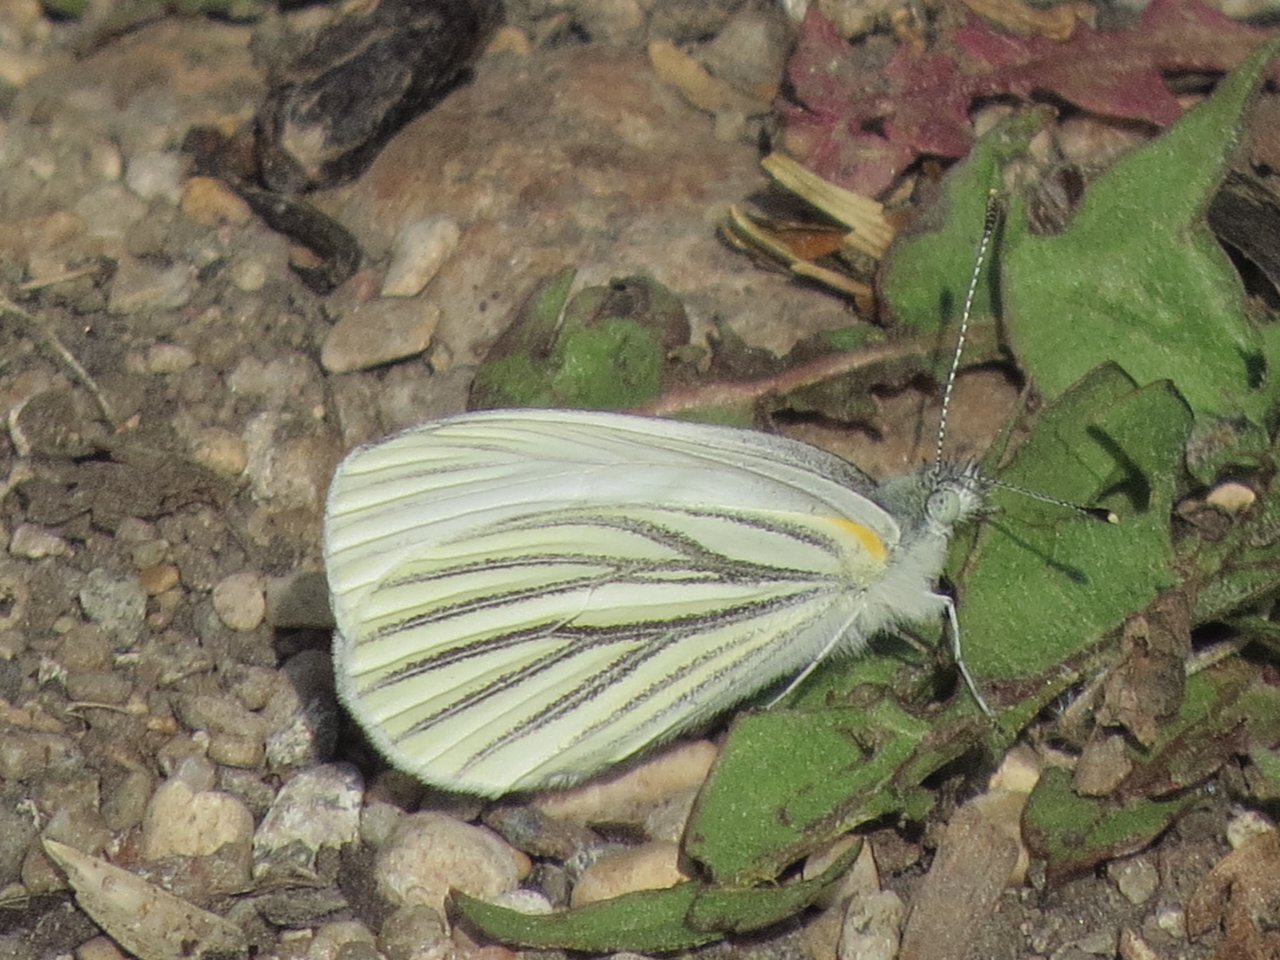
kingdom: Animalia
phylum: Arthropoda
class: Insecta
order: Lepidoptera
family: Pieridae
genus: Pieris
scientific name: Pieris oleracea
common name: Mustard White
